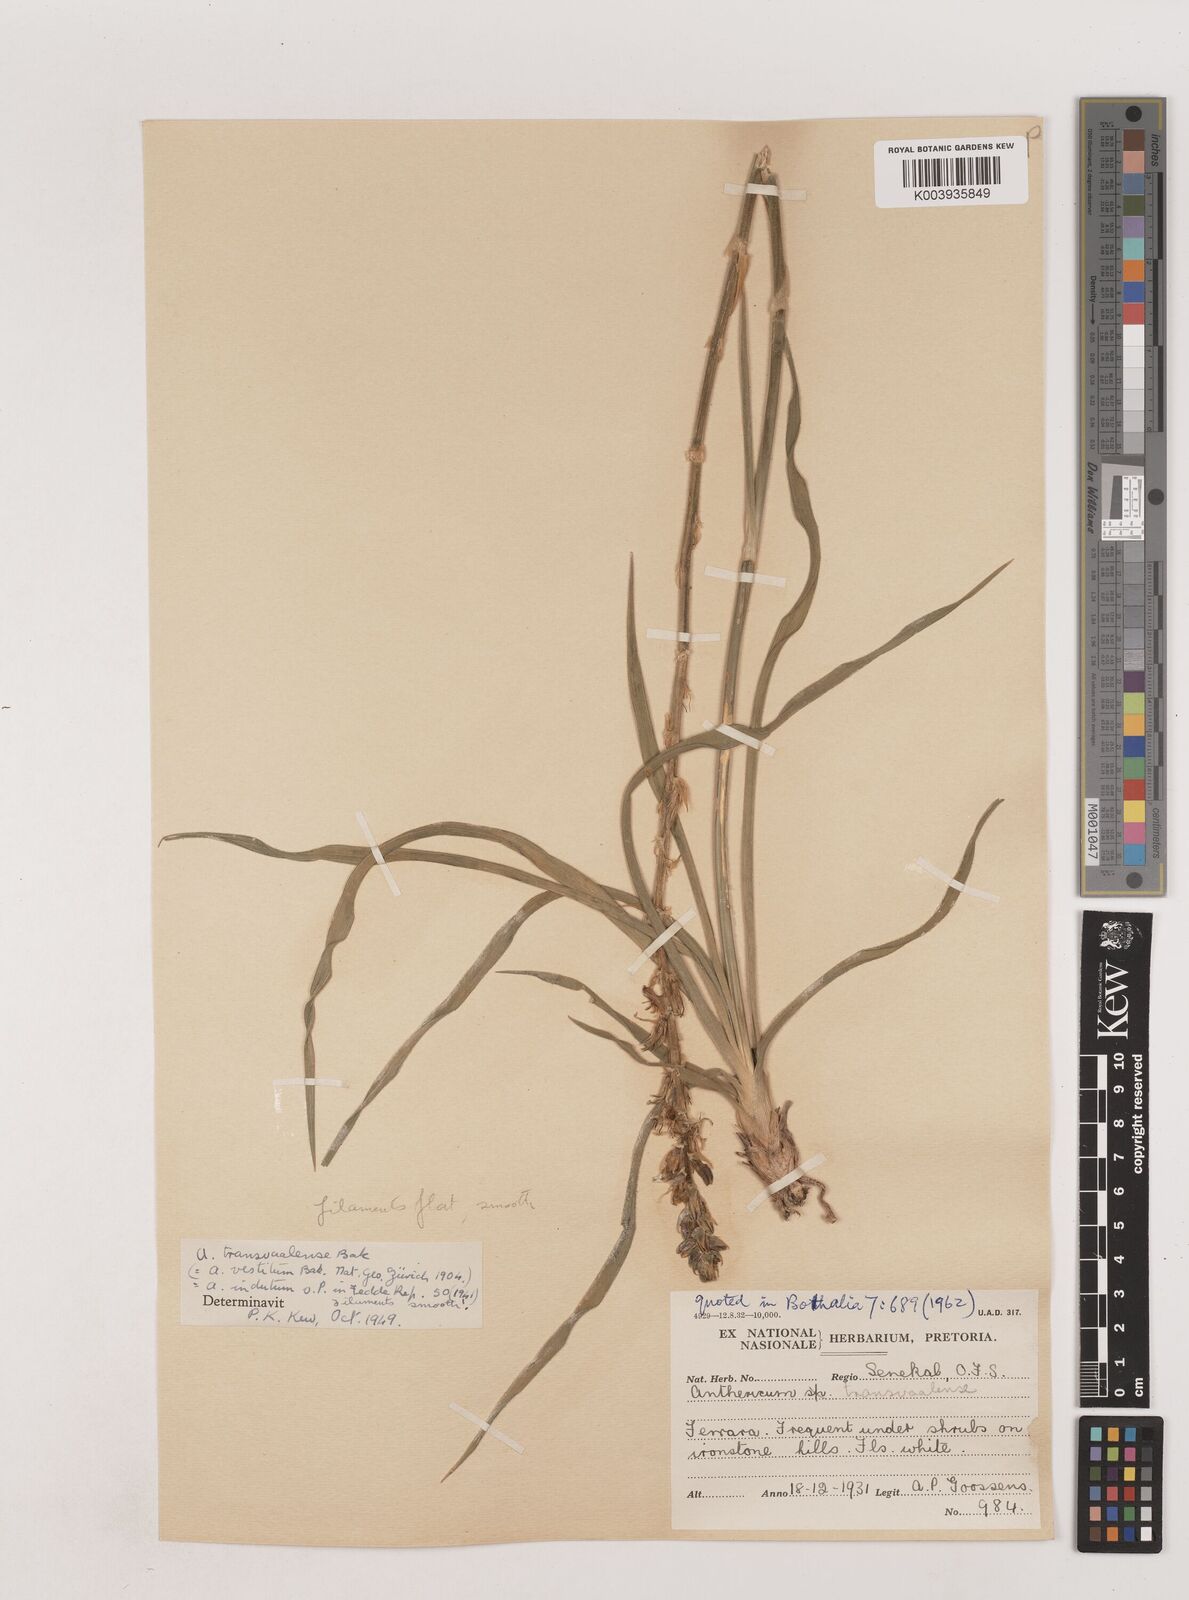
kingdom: Plantae
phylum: Tracheophyta
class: Liliopsida
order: Asparagales
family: Asparagaceae
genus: Chlorophytum
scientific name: Chlorophytum transvaalense
